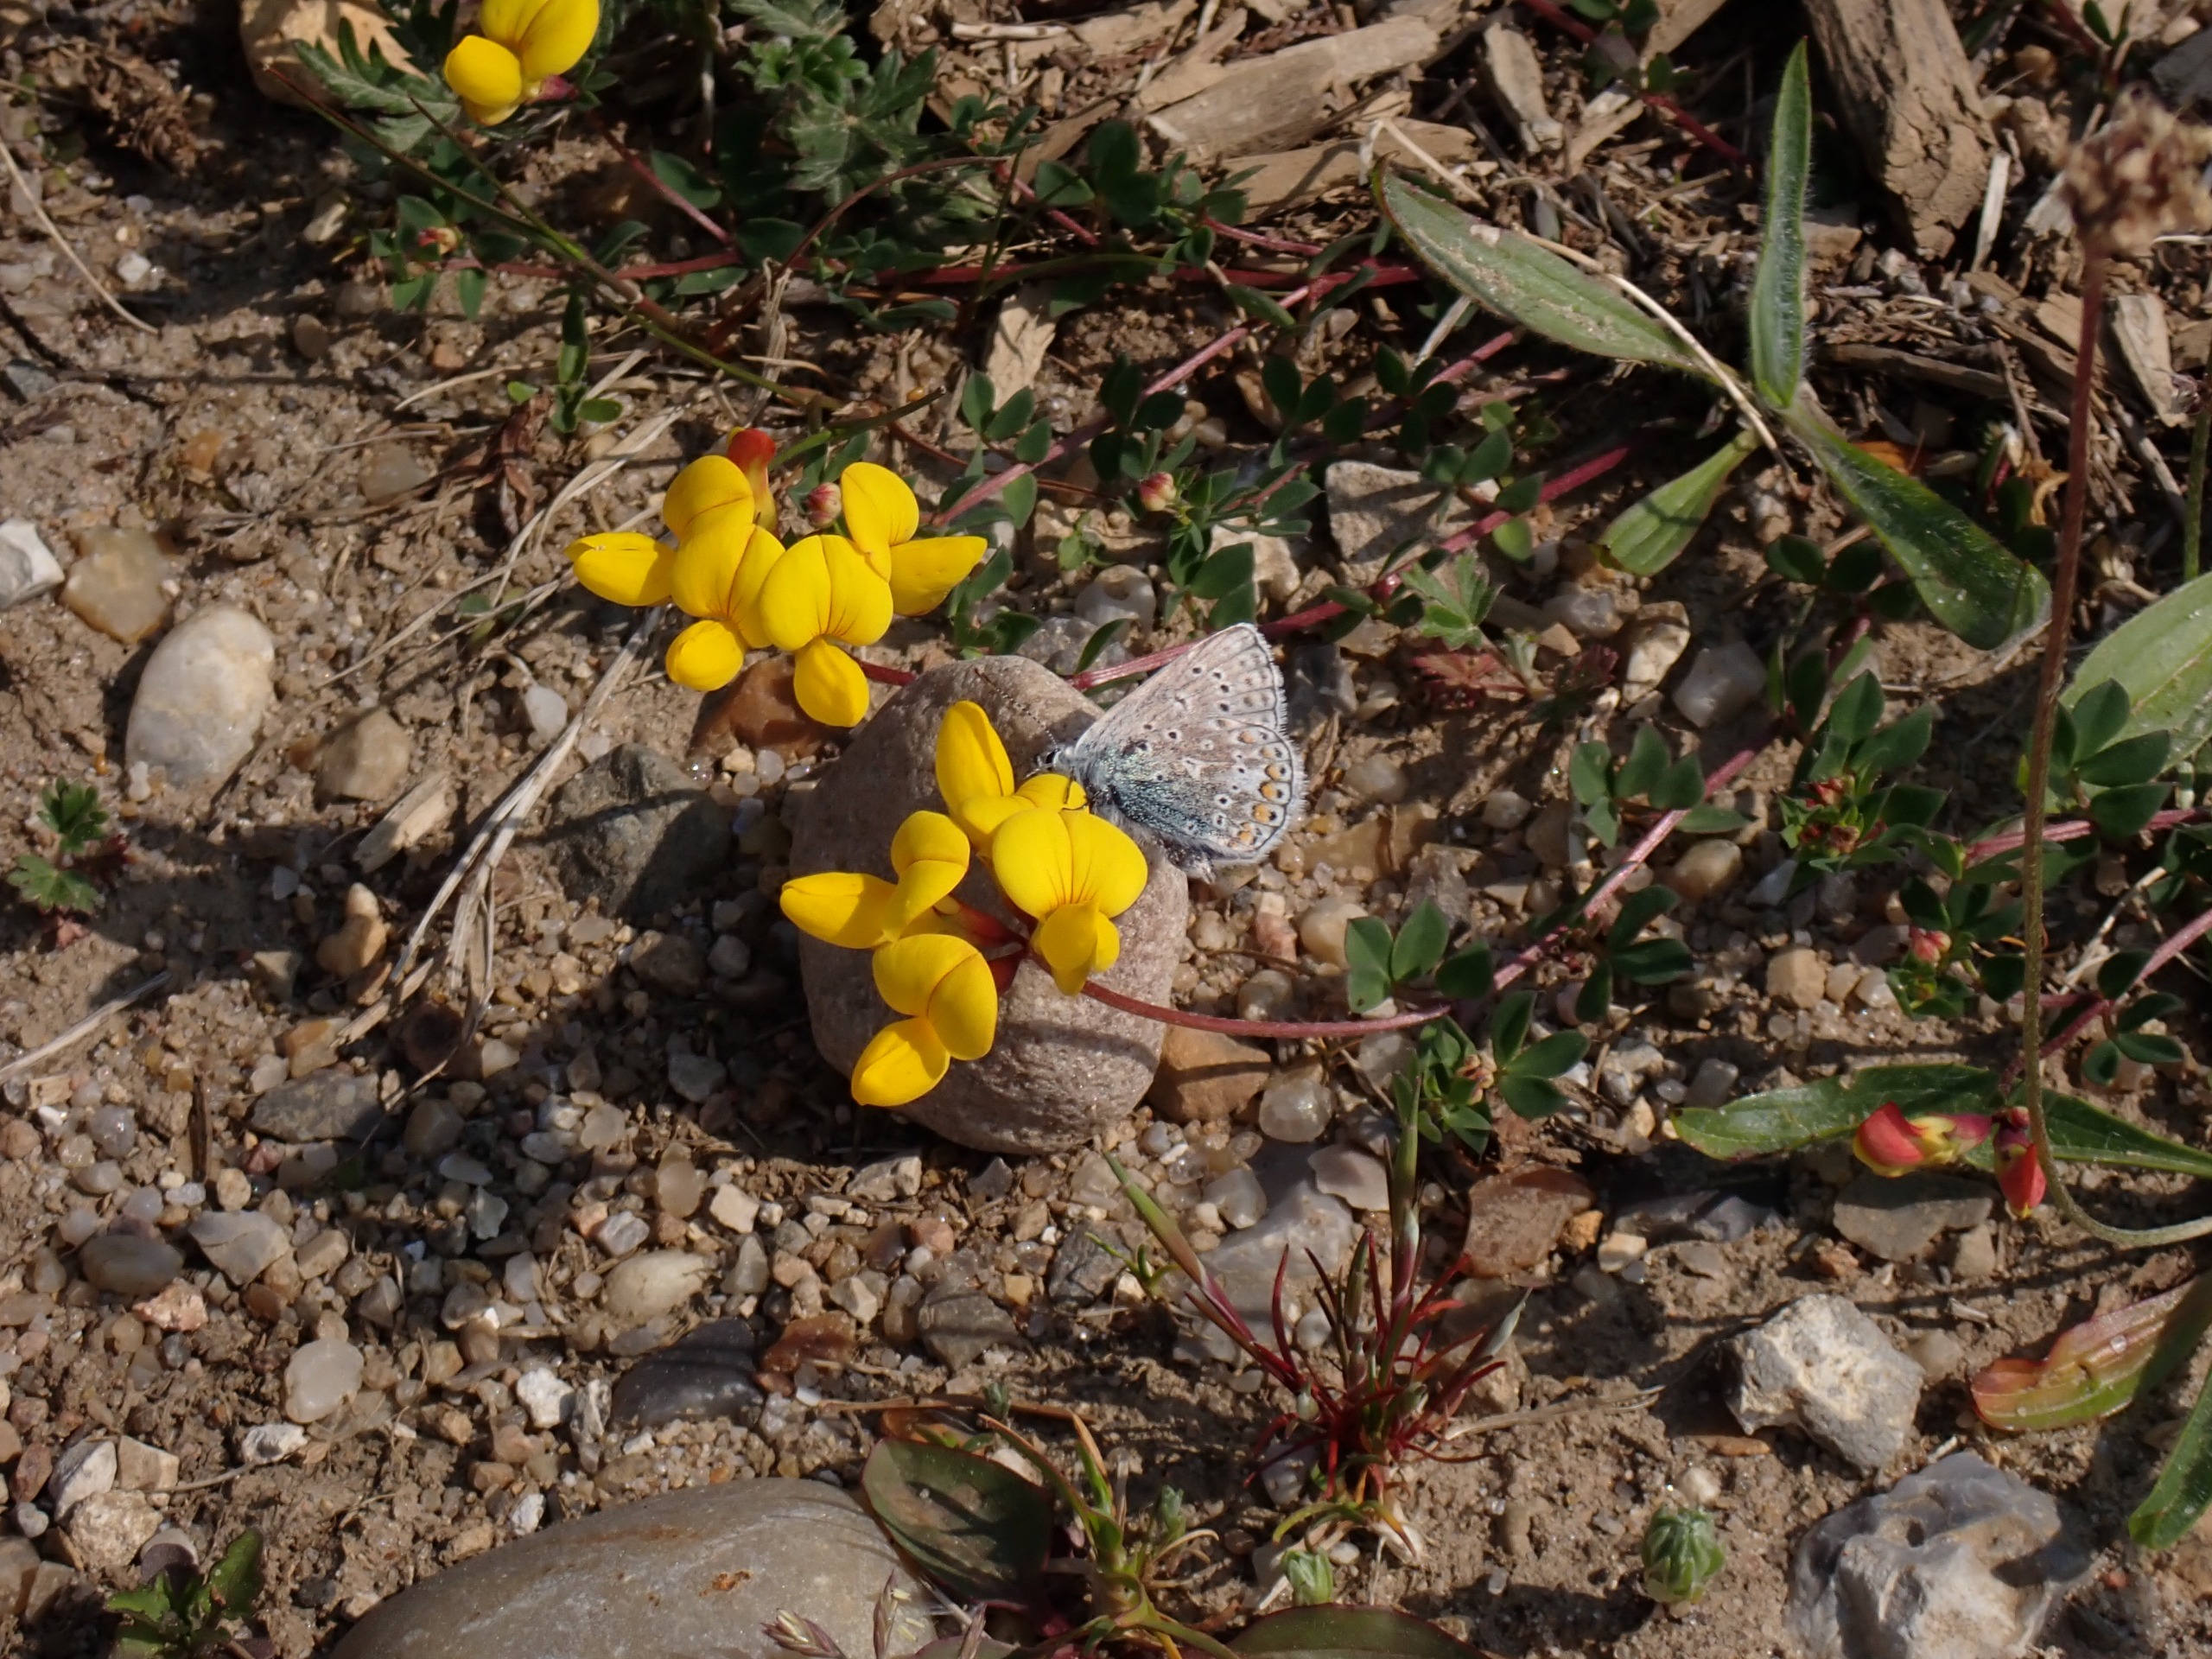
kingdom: Animalia
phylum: Arthropoda
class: Insecta
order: Lepidoptera
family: Lycaenidae
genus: Polyommatus
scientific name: Polyommatus icarus
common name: Almindelig blåfugl
